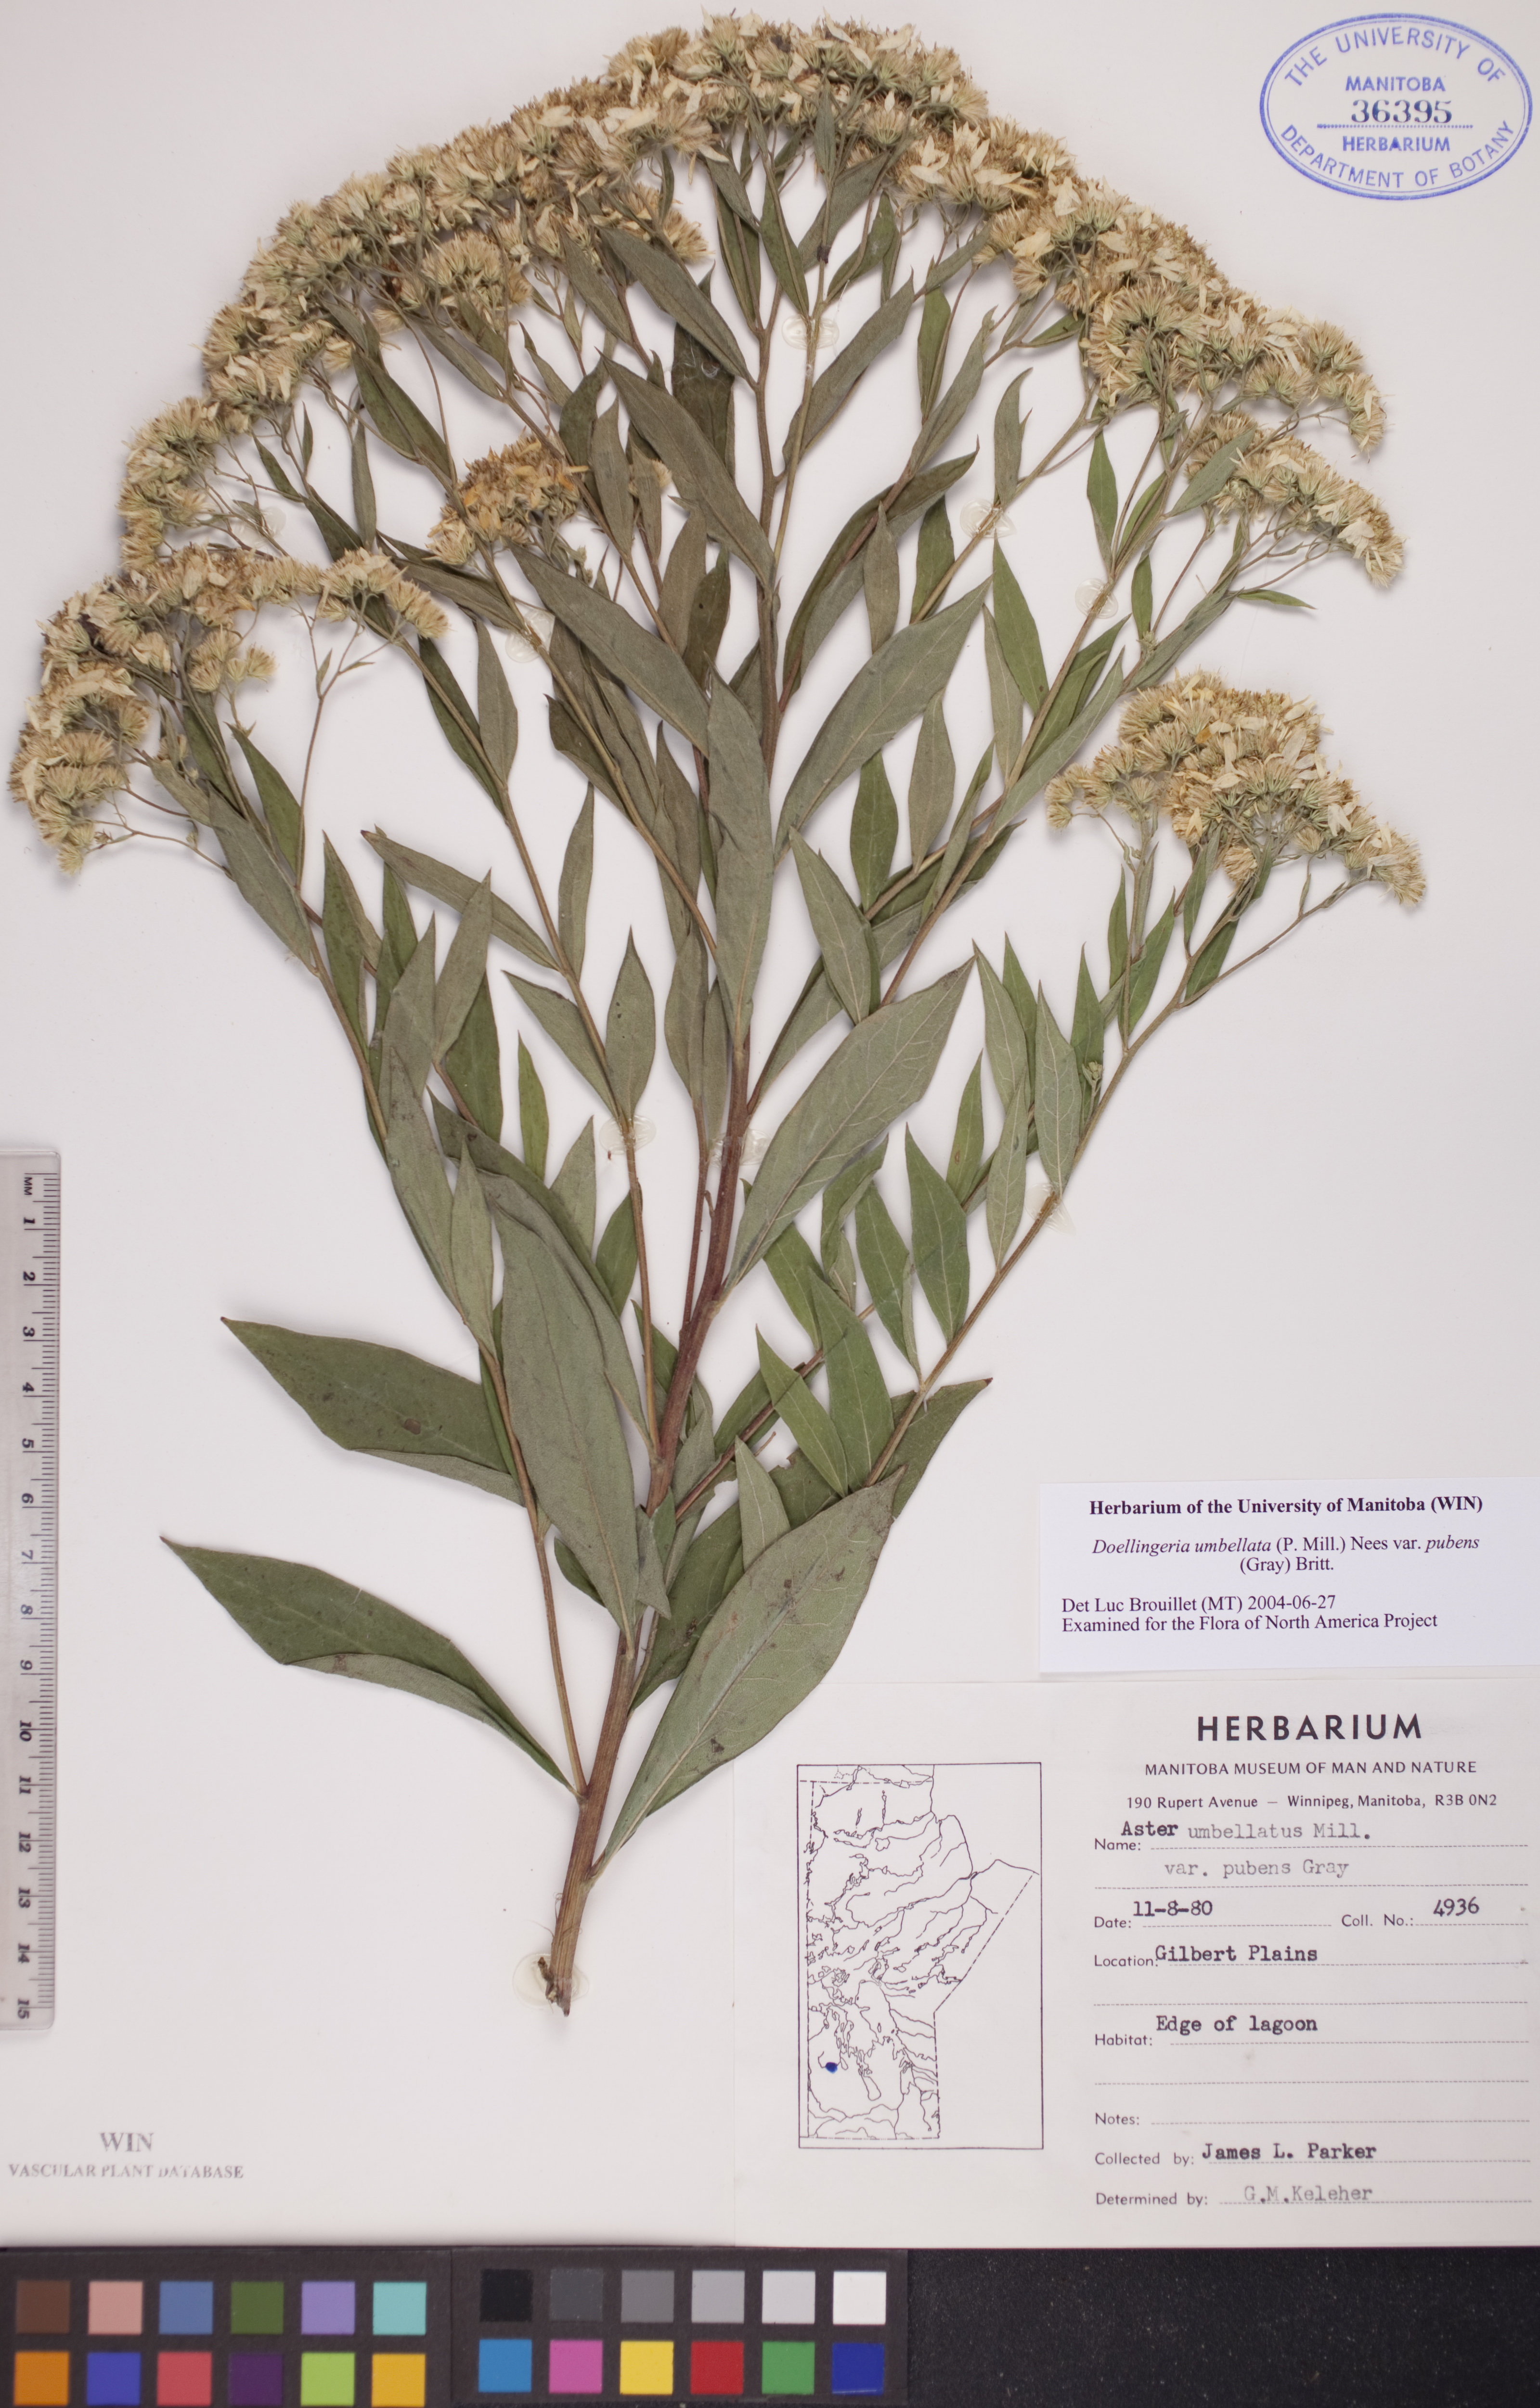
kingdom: Plantae
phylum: Tracheophyta
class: Magnoliopsida
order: Asterales
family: Asteraceae
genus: Doellingeria
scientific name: Doellingeria umbellata
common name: Flat-top white aster
